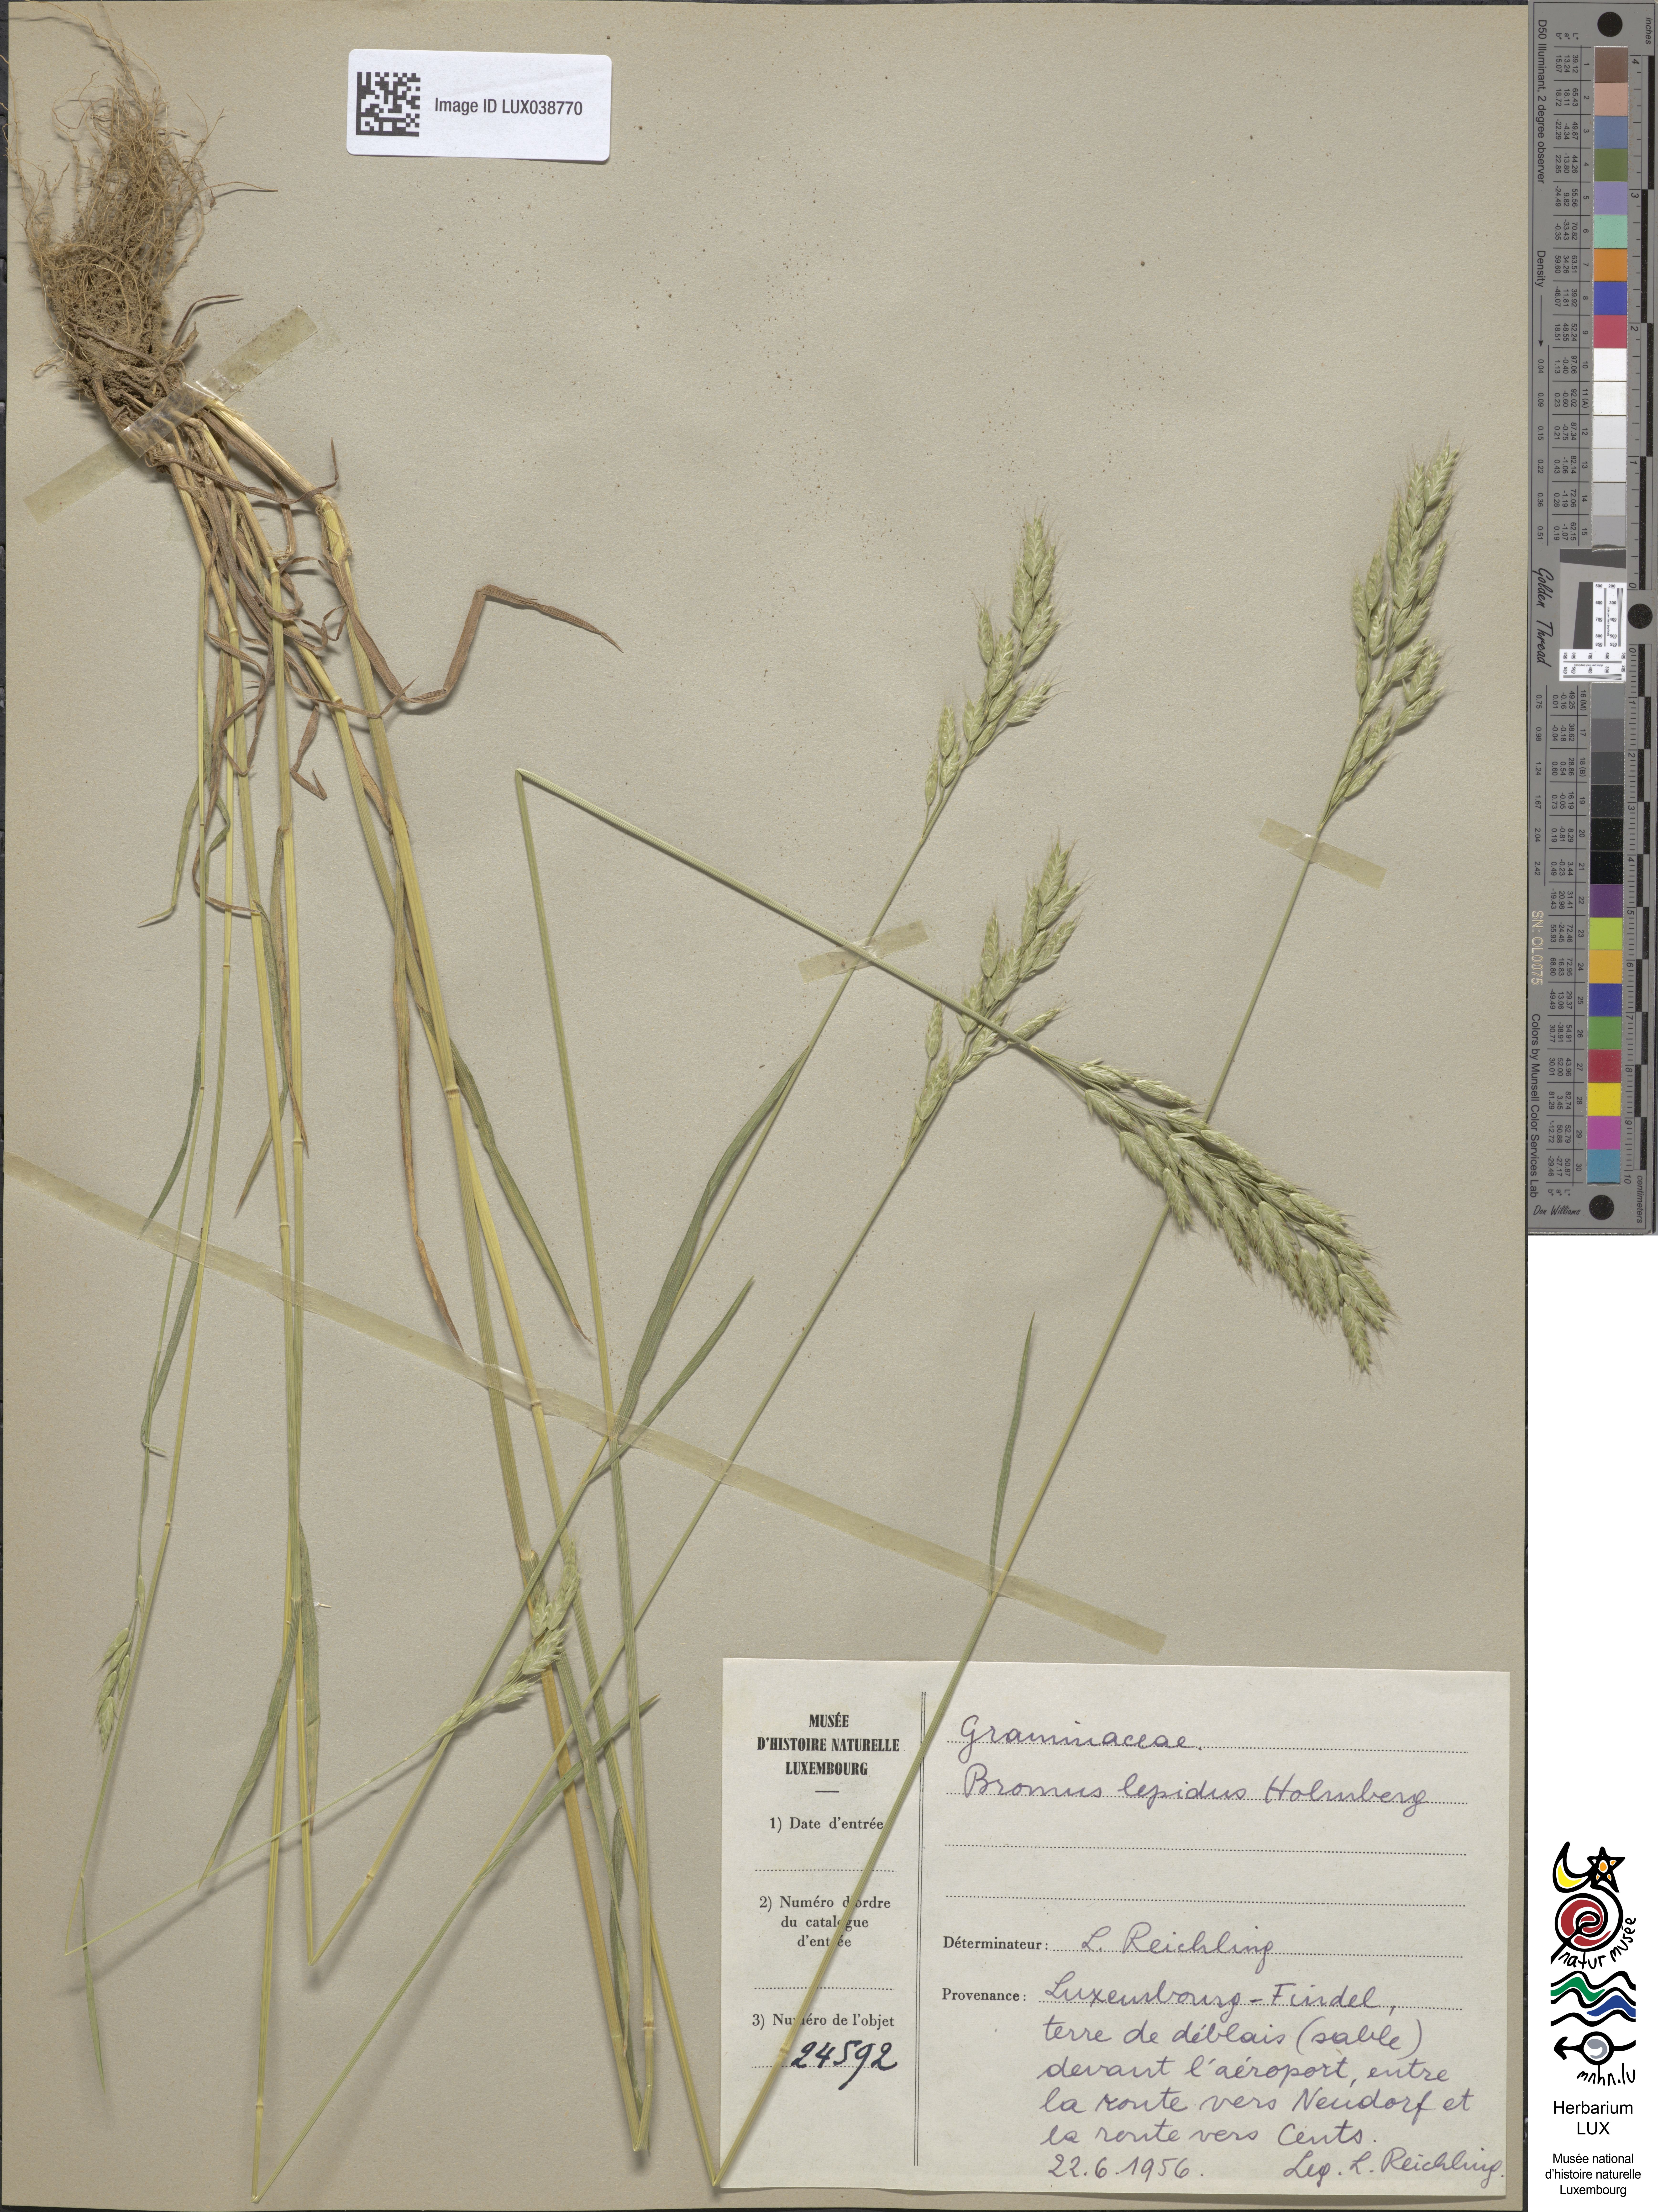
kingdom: Plantae
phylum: Tracheophyta
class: Liliopsida
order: Poales
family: Poaceae
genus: Bromus
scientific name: Bromus lepidus
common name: Slender soft-brome
